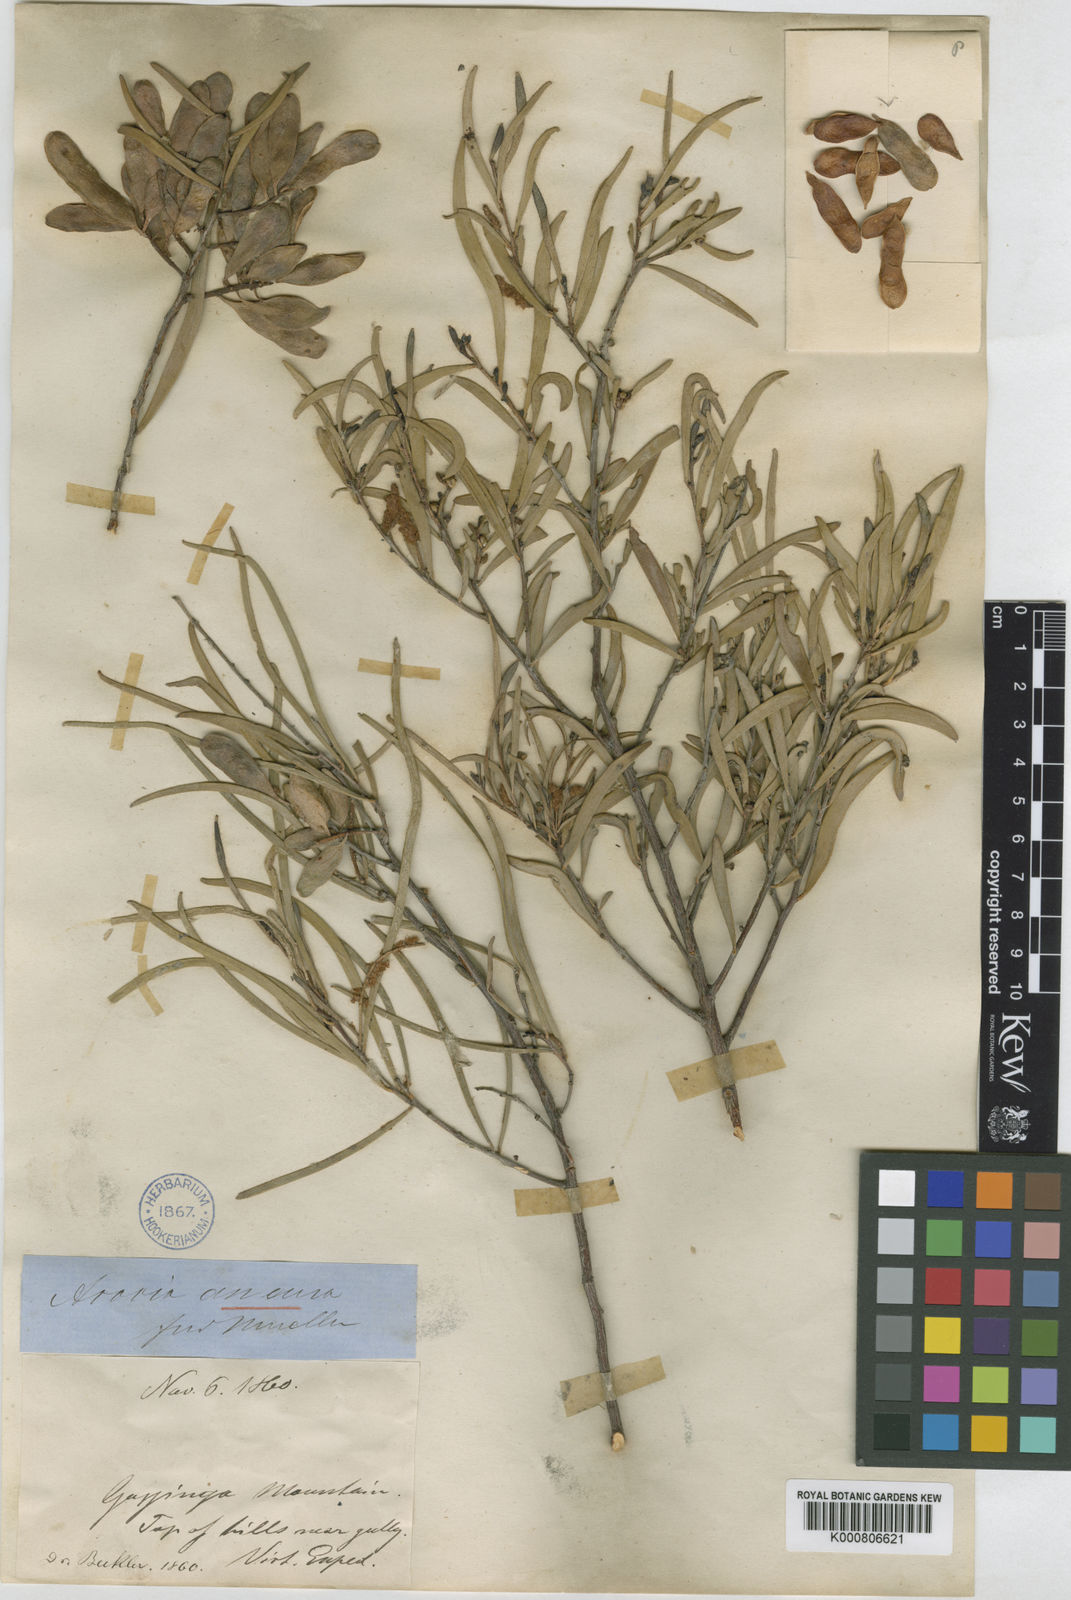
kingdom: Plantae
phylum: Tracheophyta
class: Magnoliopsida
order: Fabales
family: Fabaceae
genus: Acacia
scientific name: Acacia
